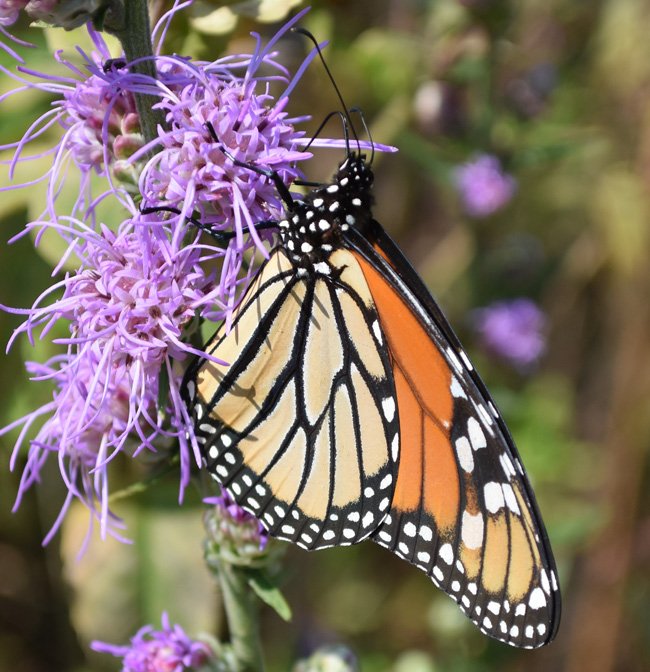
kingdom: Animalia
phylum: Arthropoda
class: Insecta
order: Lepidoptera
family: Nymphalidae
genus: Danaus
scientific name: Danaus plexippus
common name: Monarch
